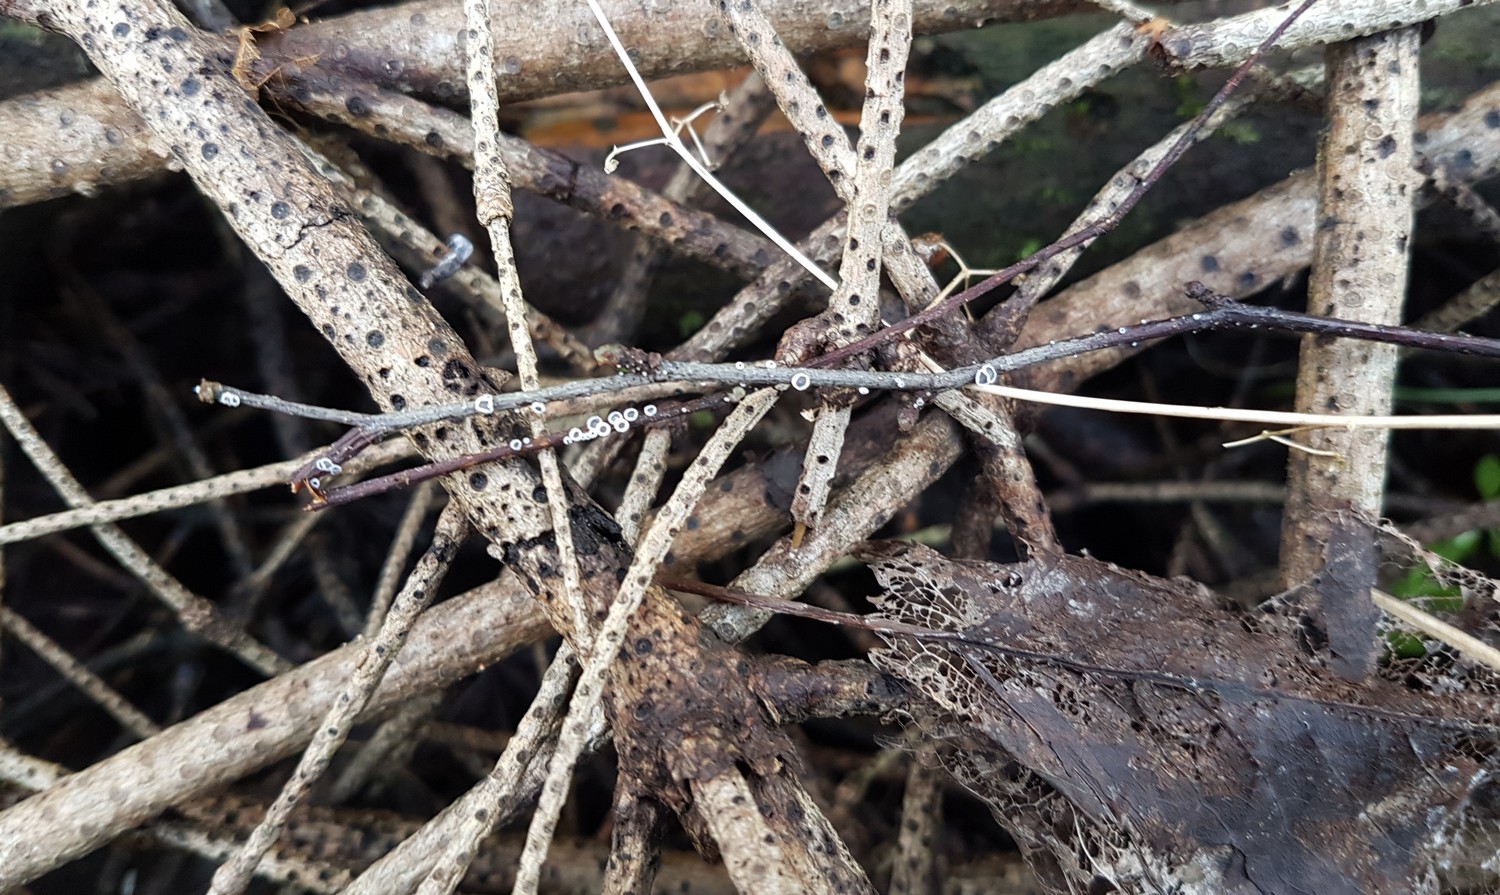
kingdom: Fungi
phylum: Basidiomycota
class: Agaricomycetes
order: Agaricales
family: Niaceae
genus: Lachnella
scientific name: Lachnella alboviolascens
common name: grå frynserede
